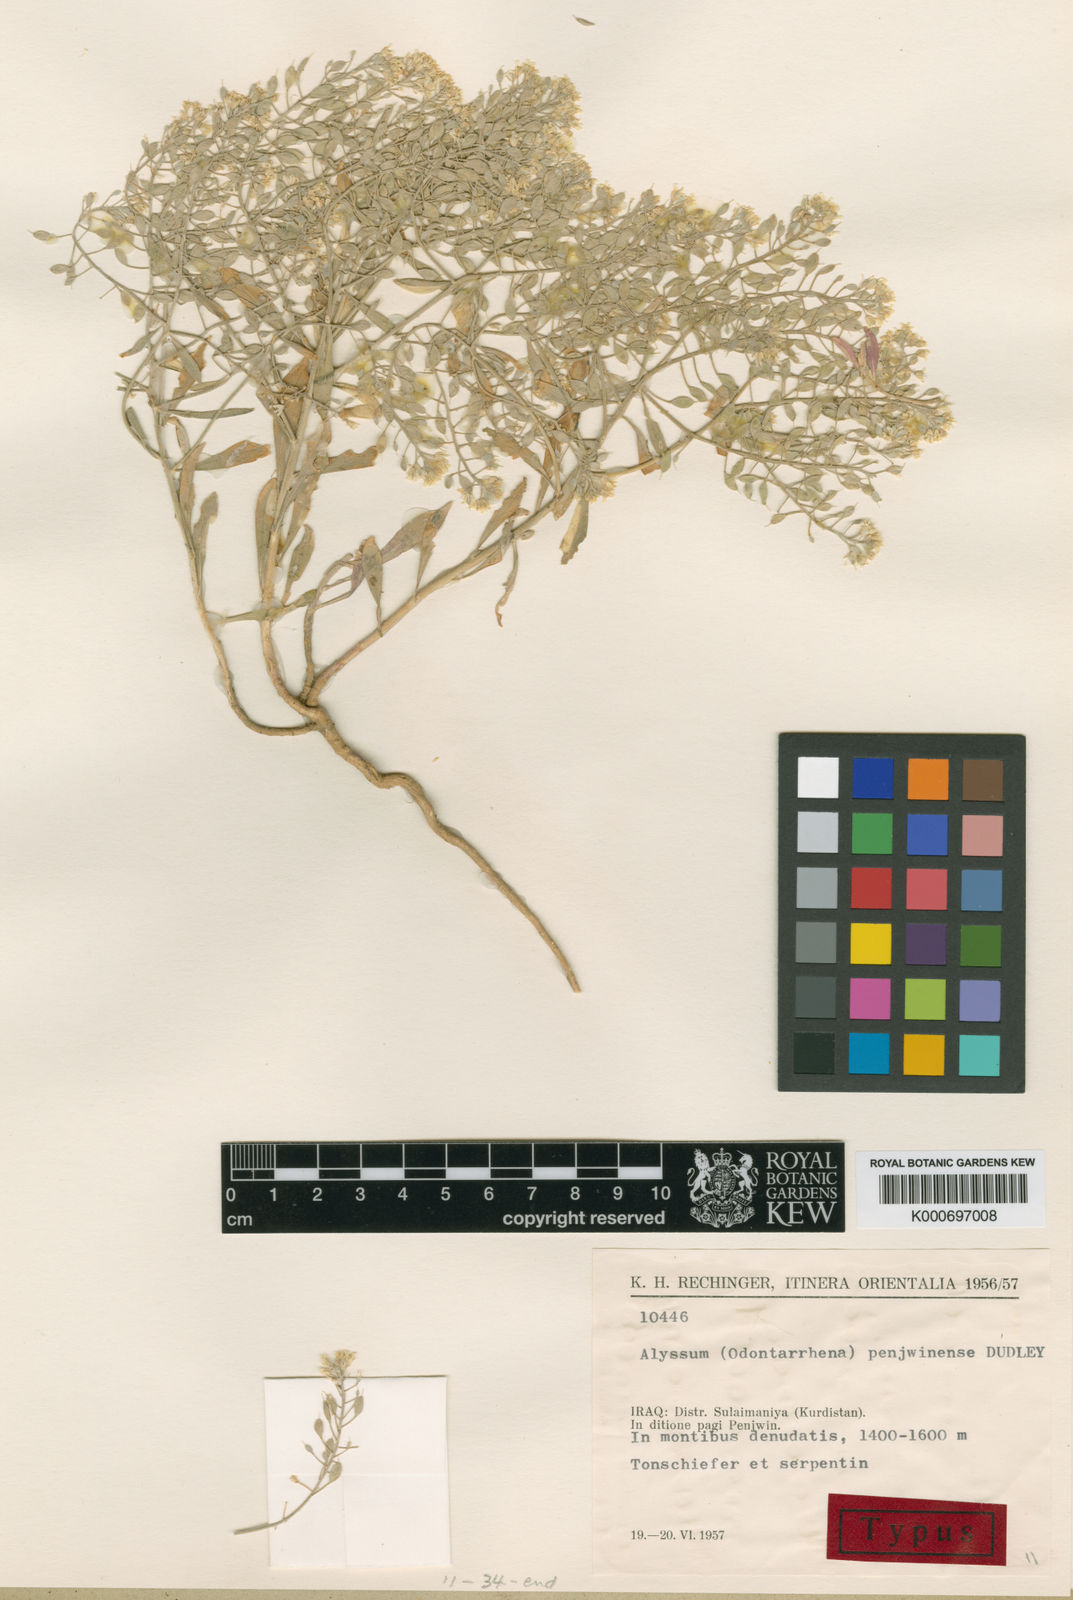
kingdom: Plantae
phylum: Tracheophyta
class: Magnoliopsida
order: Brassicales
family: Brassicaceae
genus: Odontarrhena
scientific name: Odontarrhena penjwinensis
